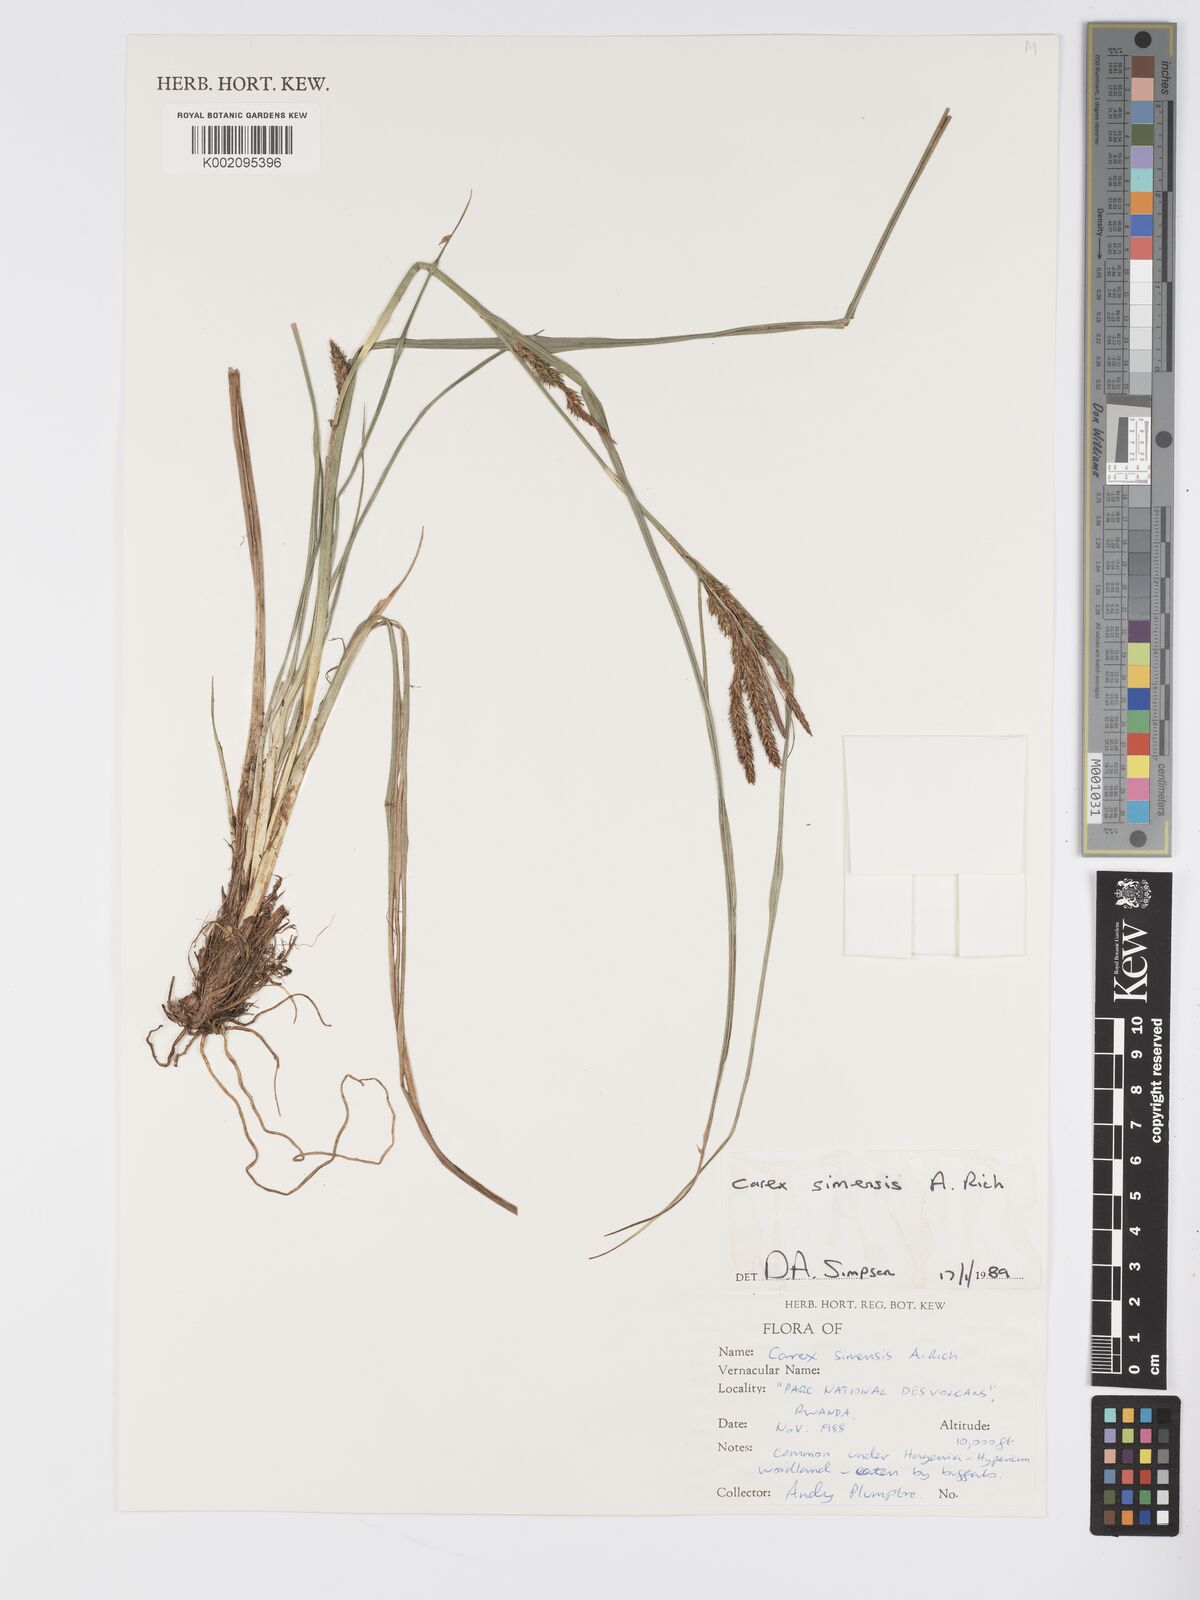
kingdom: Plantae
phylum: Tracheophyta
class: Liliopsida
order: Poales
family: Cyperaceae
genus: Carex
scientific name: Carex simensis
